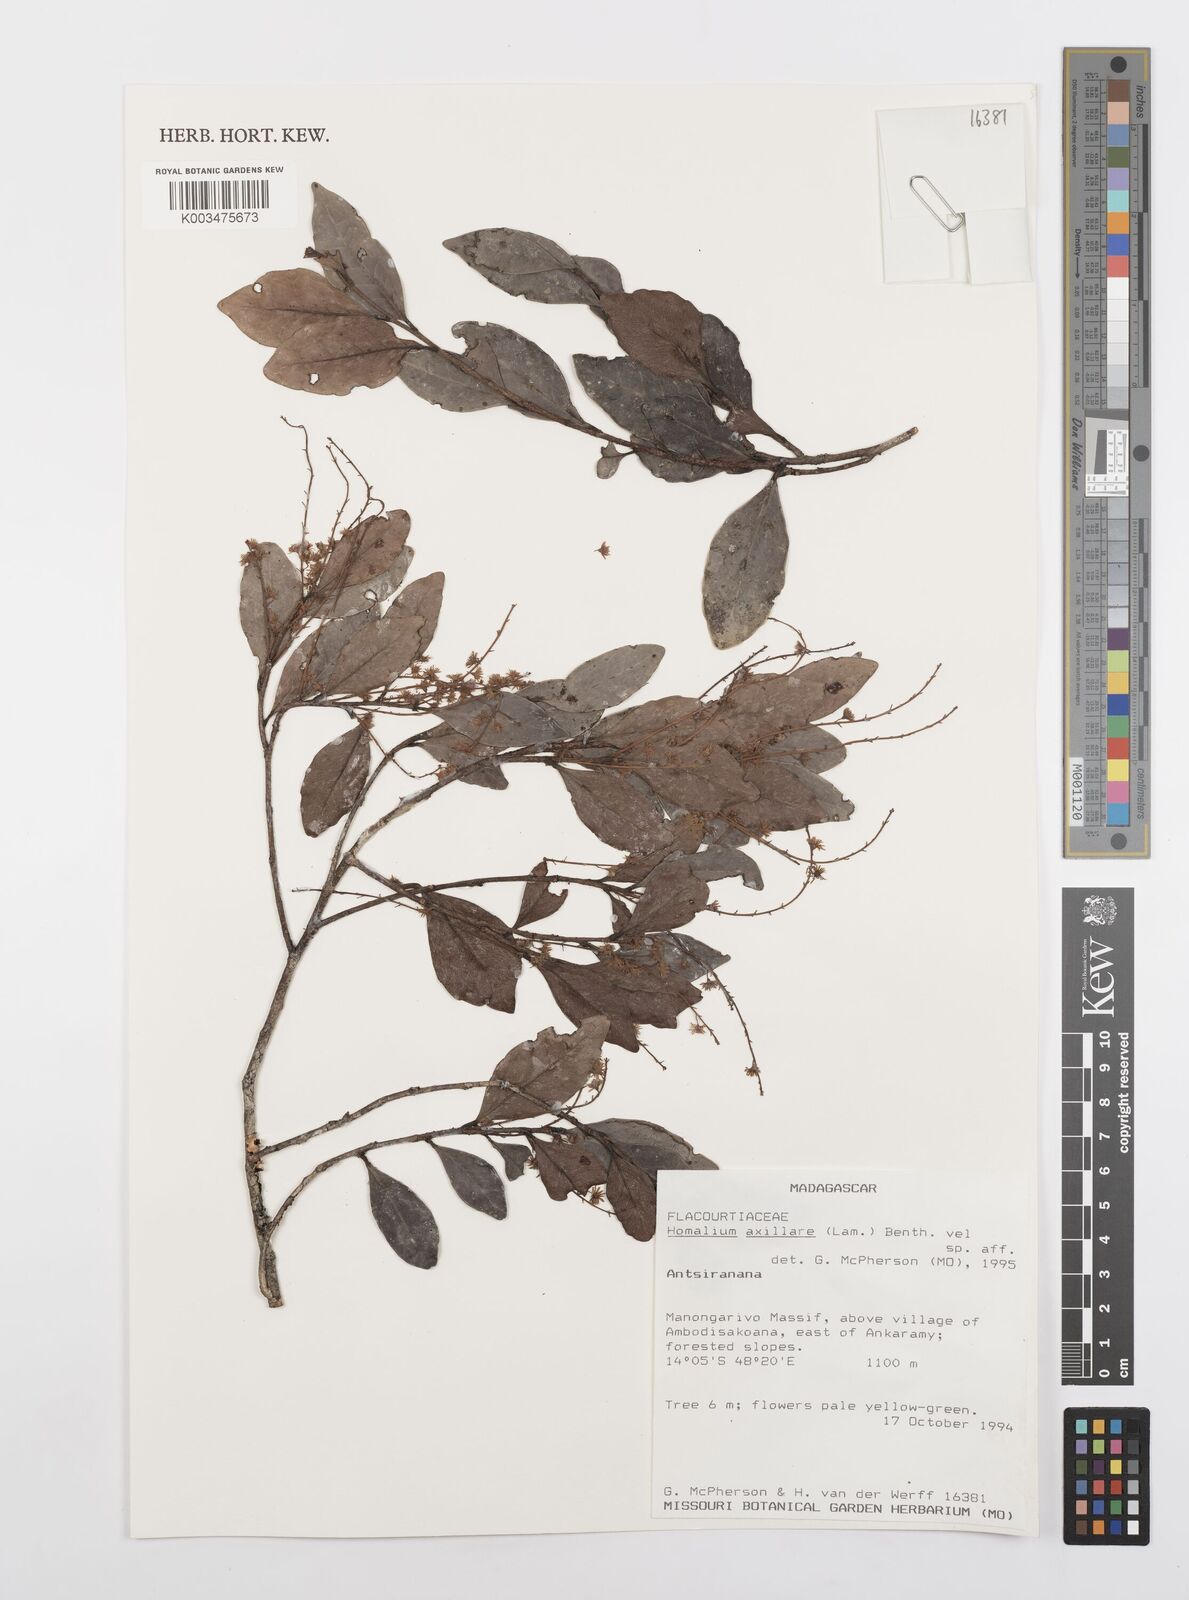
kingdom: Plantae
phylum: Tracheophyta
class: Magnoliopsida
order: Malpighiales
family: Salicaceae
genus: Homalium
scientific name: Homalium axillare
